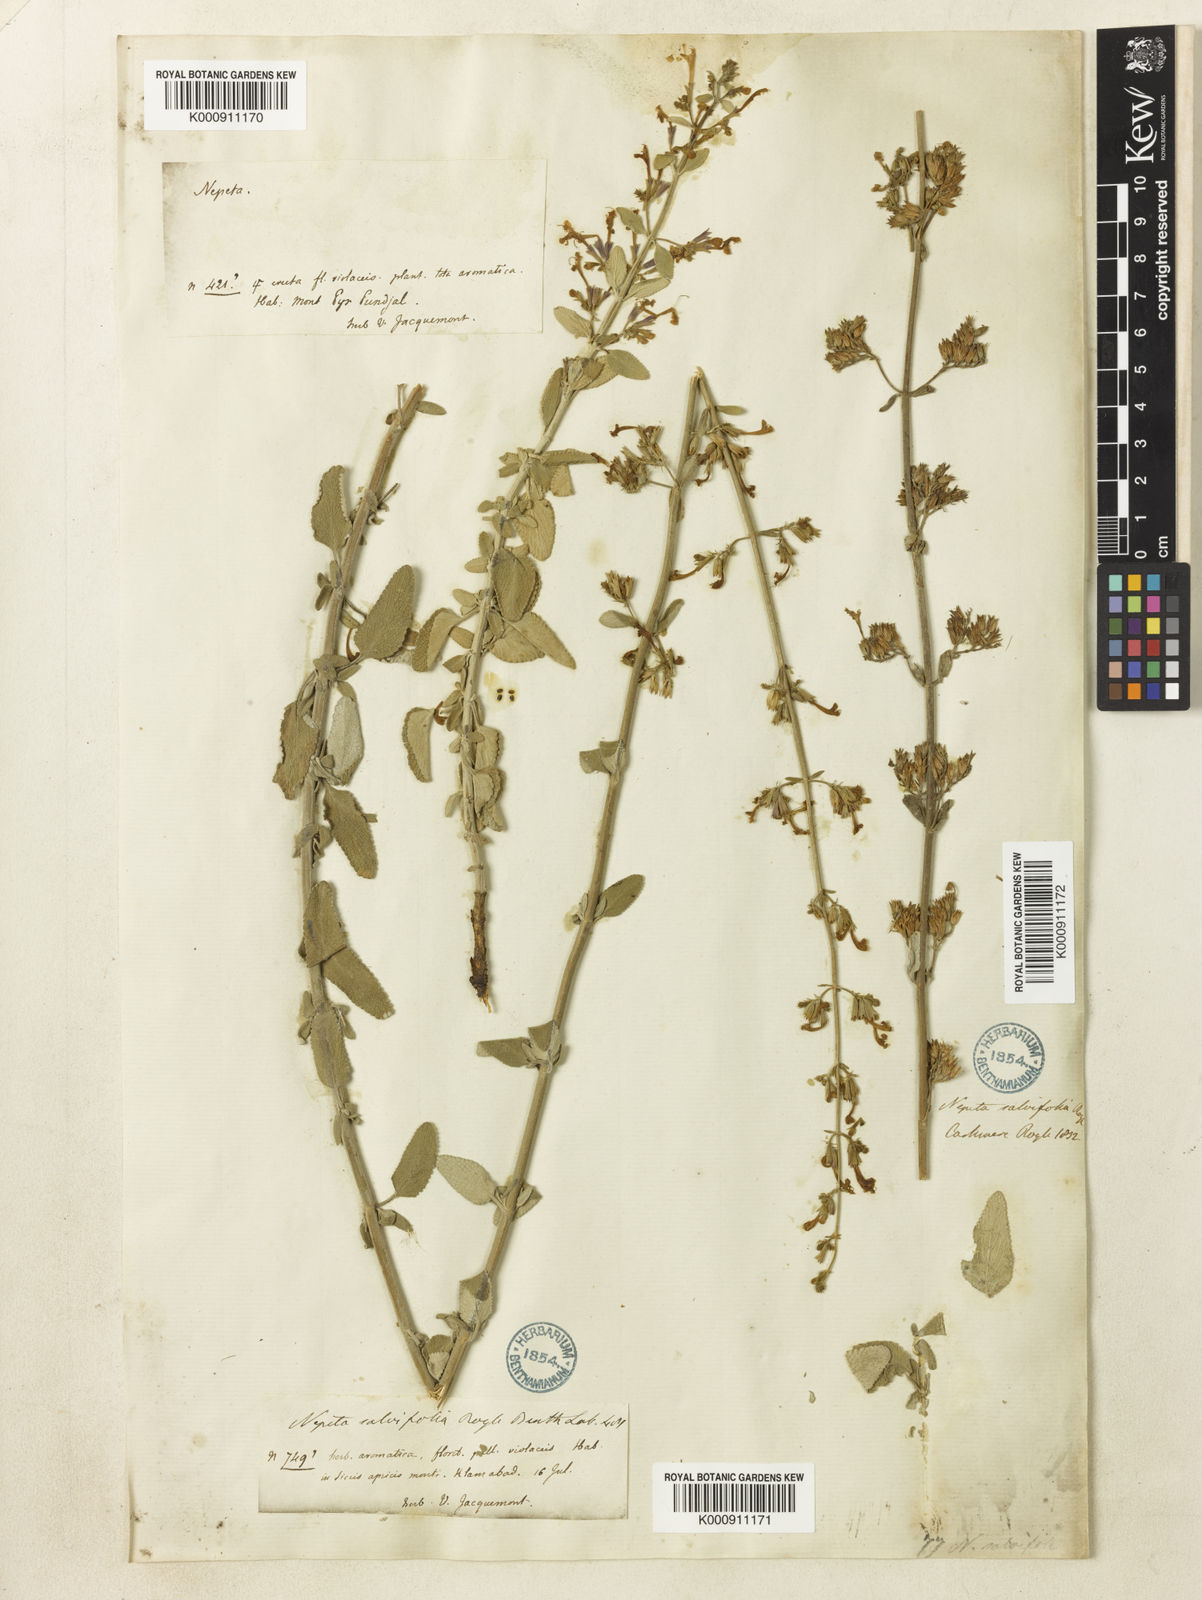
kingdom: Plantae
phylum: Tracheophyta
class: Magnoliopsida
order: Lamiales
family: Lamiaceae
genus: Nepeta
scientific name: Nepeta leucolaena
